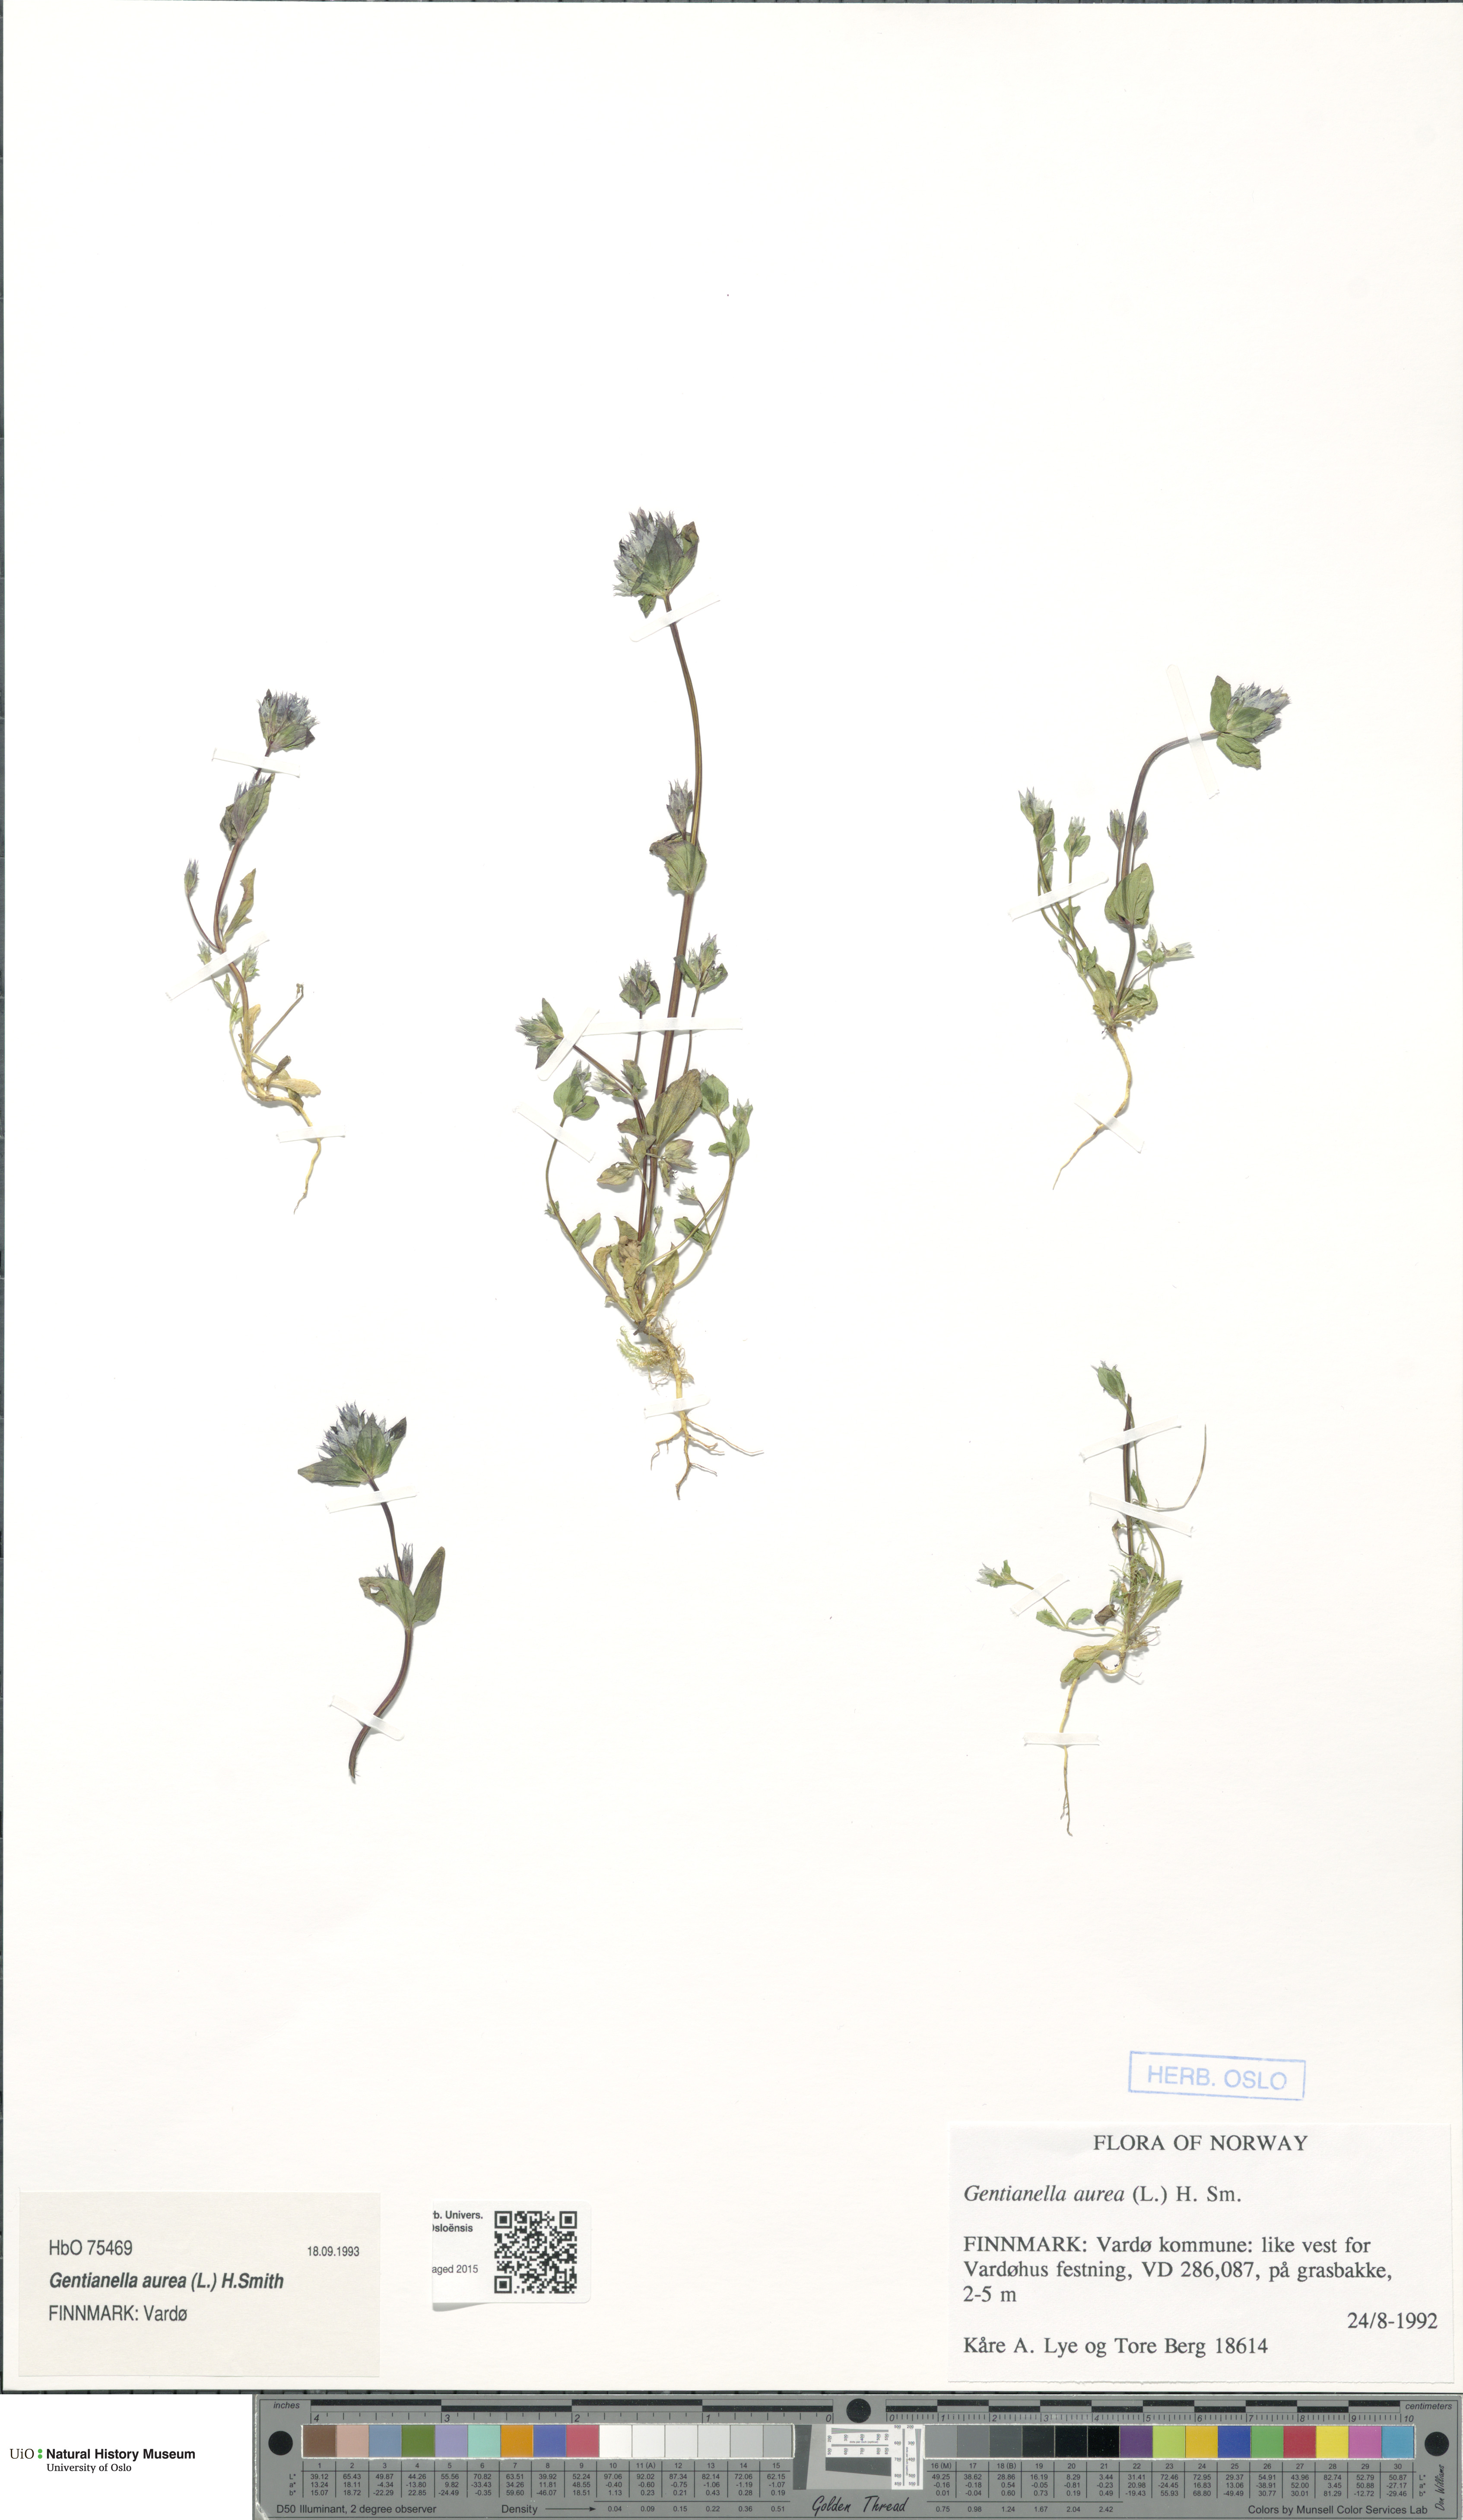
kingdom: Plantae
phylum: Tracheophyta
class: Magnoliopsida
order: Gentianales
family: Gentianaceae
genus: Gentianella
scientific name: Gentianella aurea
